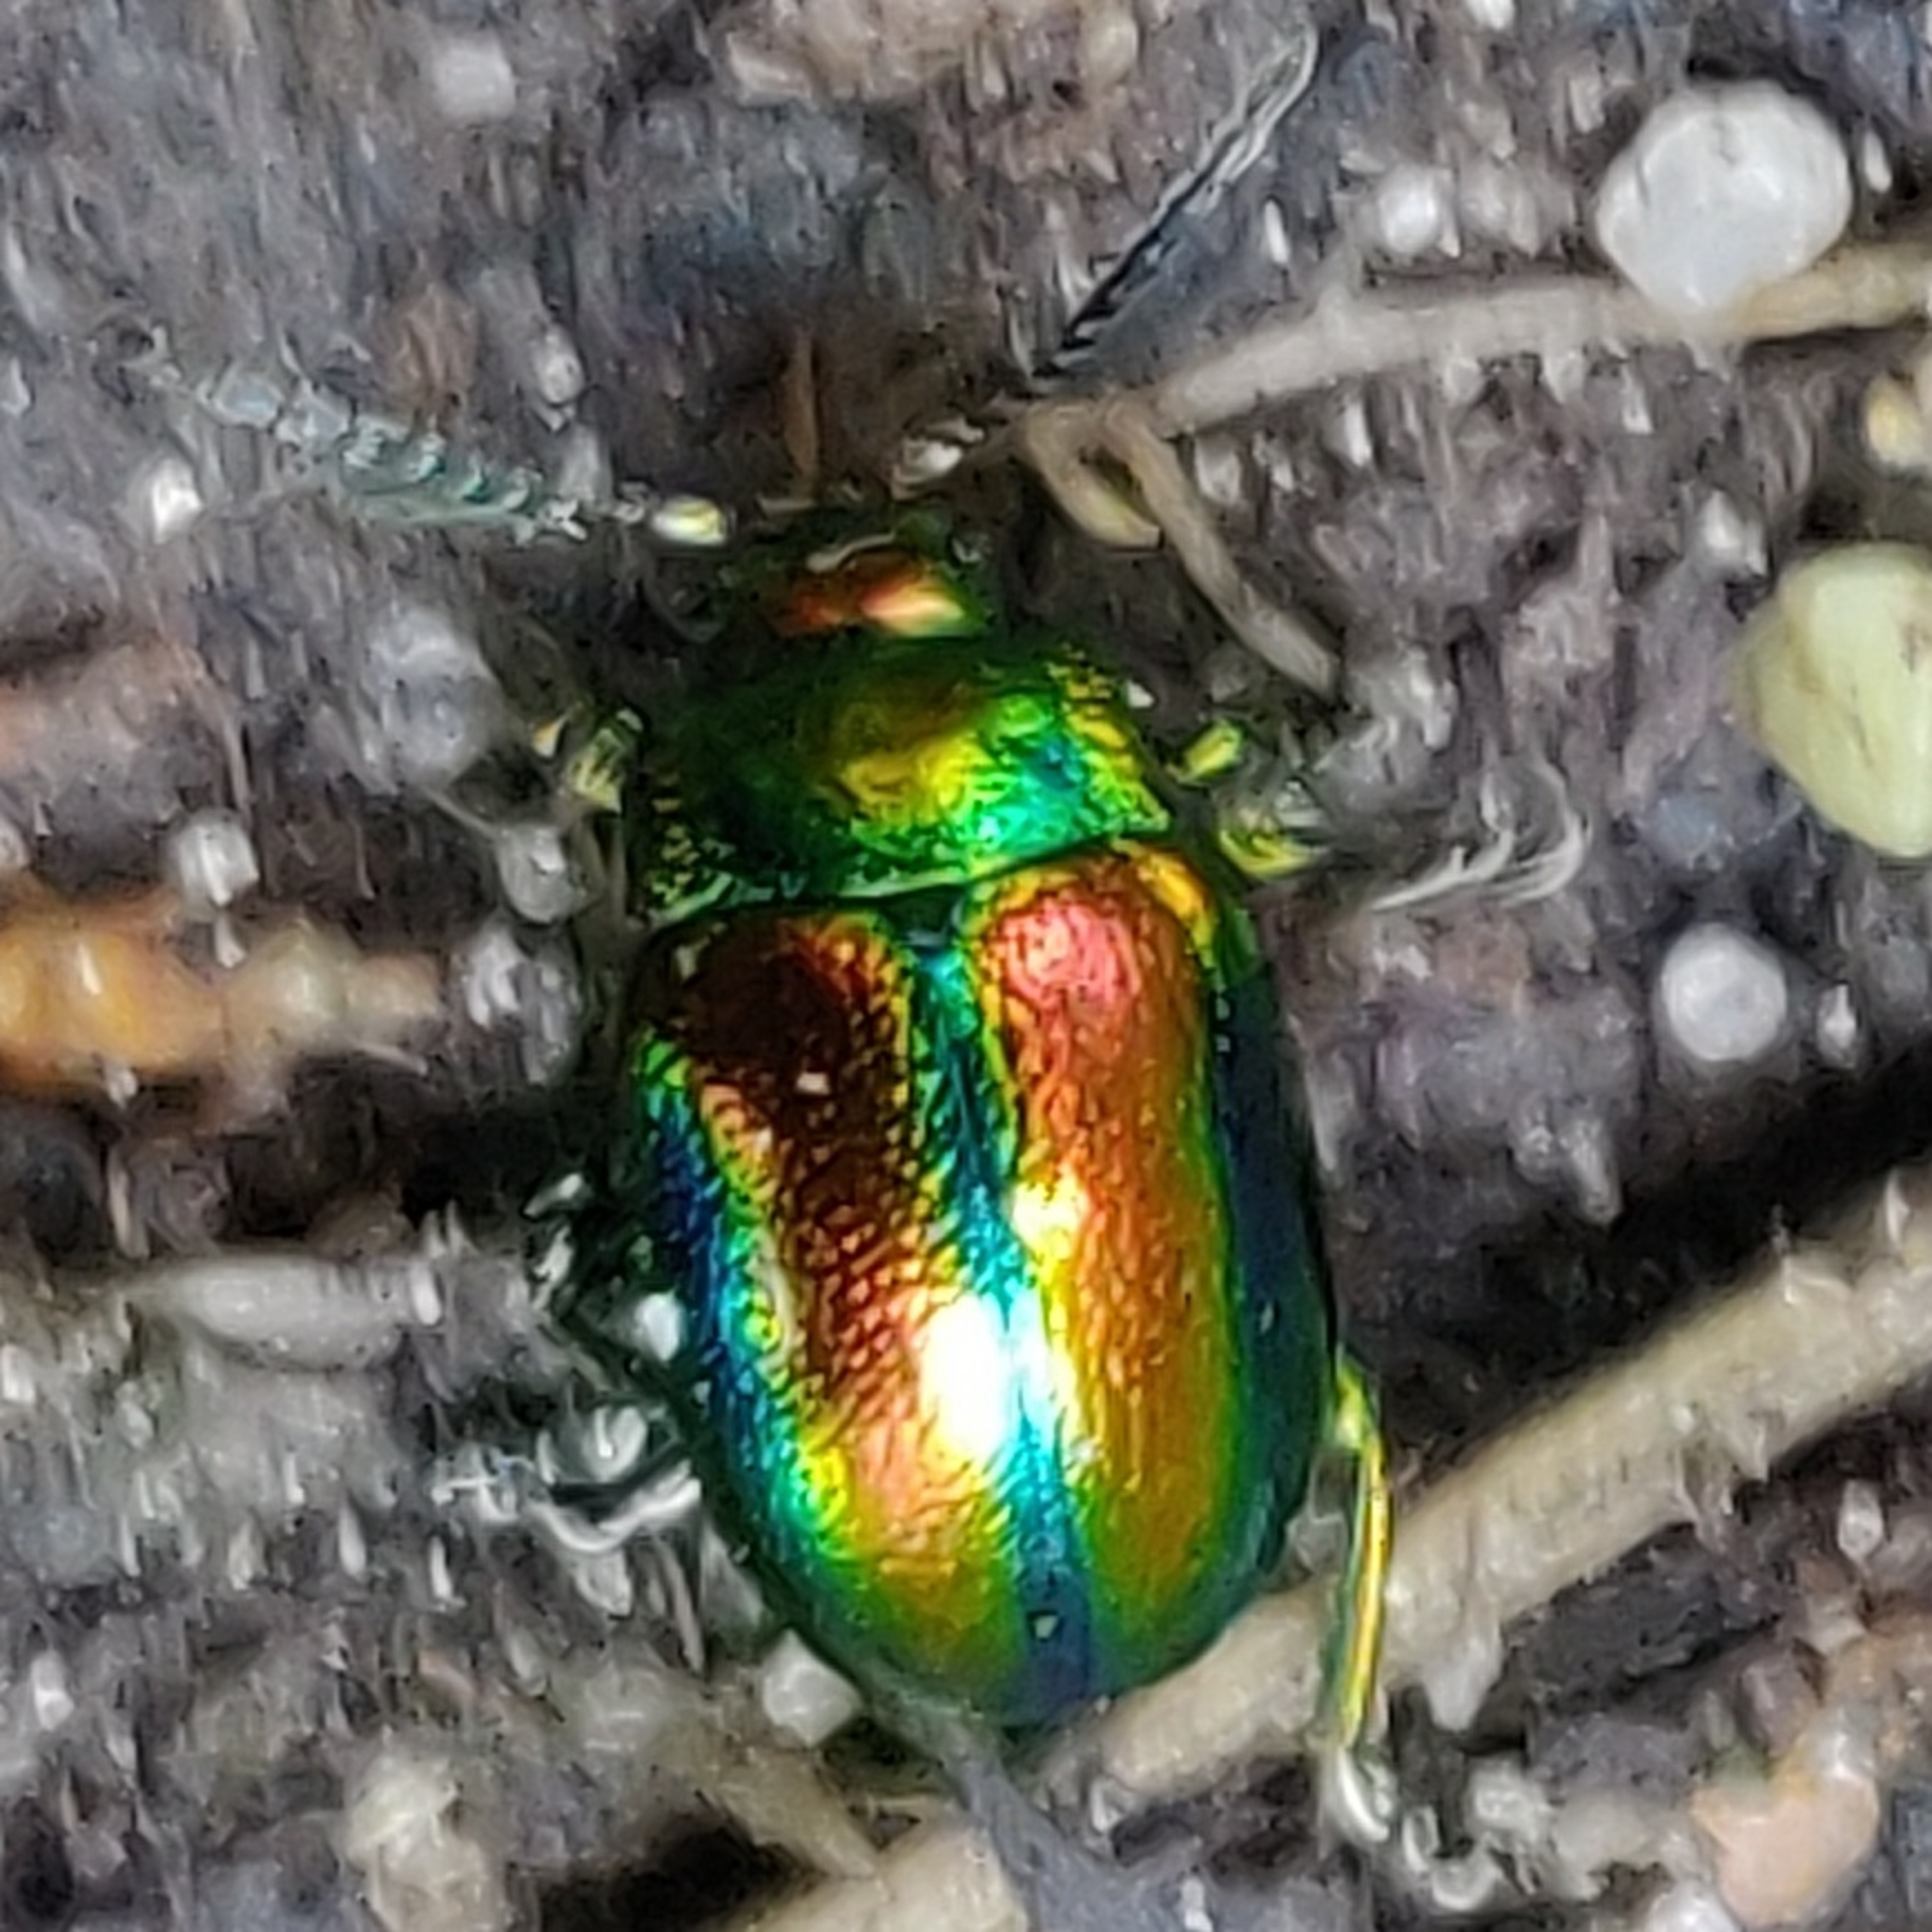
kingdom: Animalia
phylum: Arthropoda
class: Insecta
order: Coleoptera
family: Chrysomelidae
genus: Chrysolina
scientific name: Chrysolina fastuosa
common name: Tvetandbladbille
